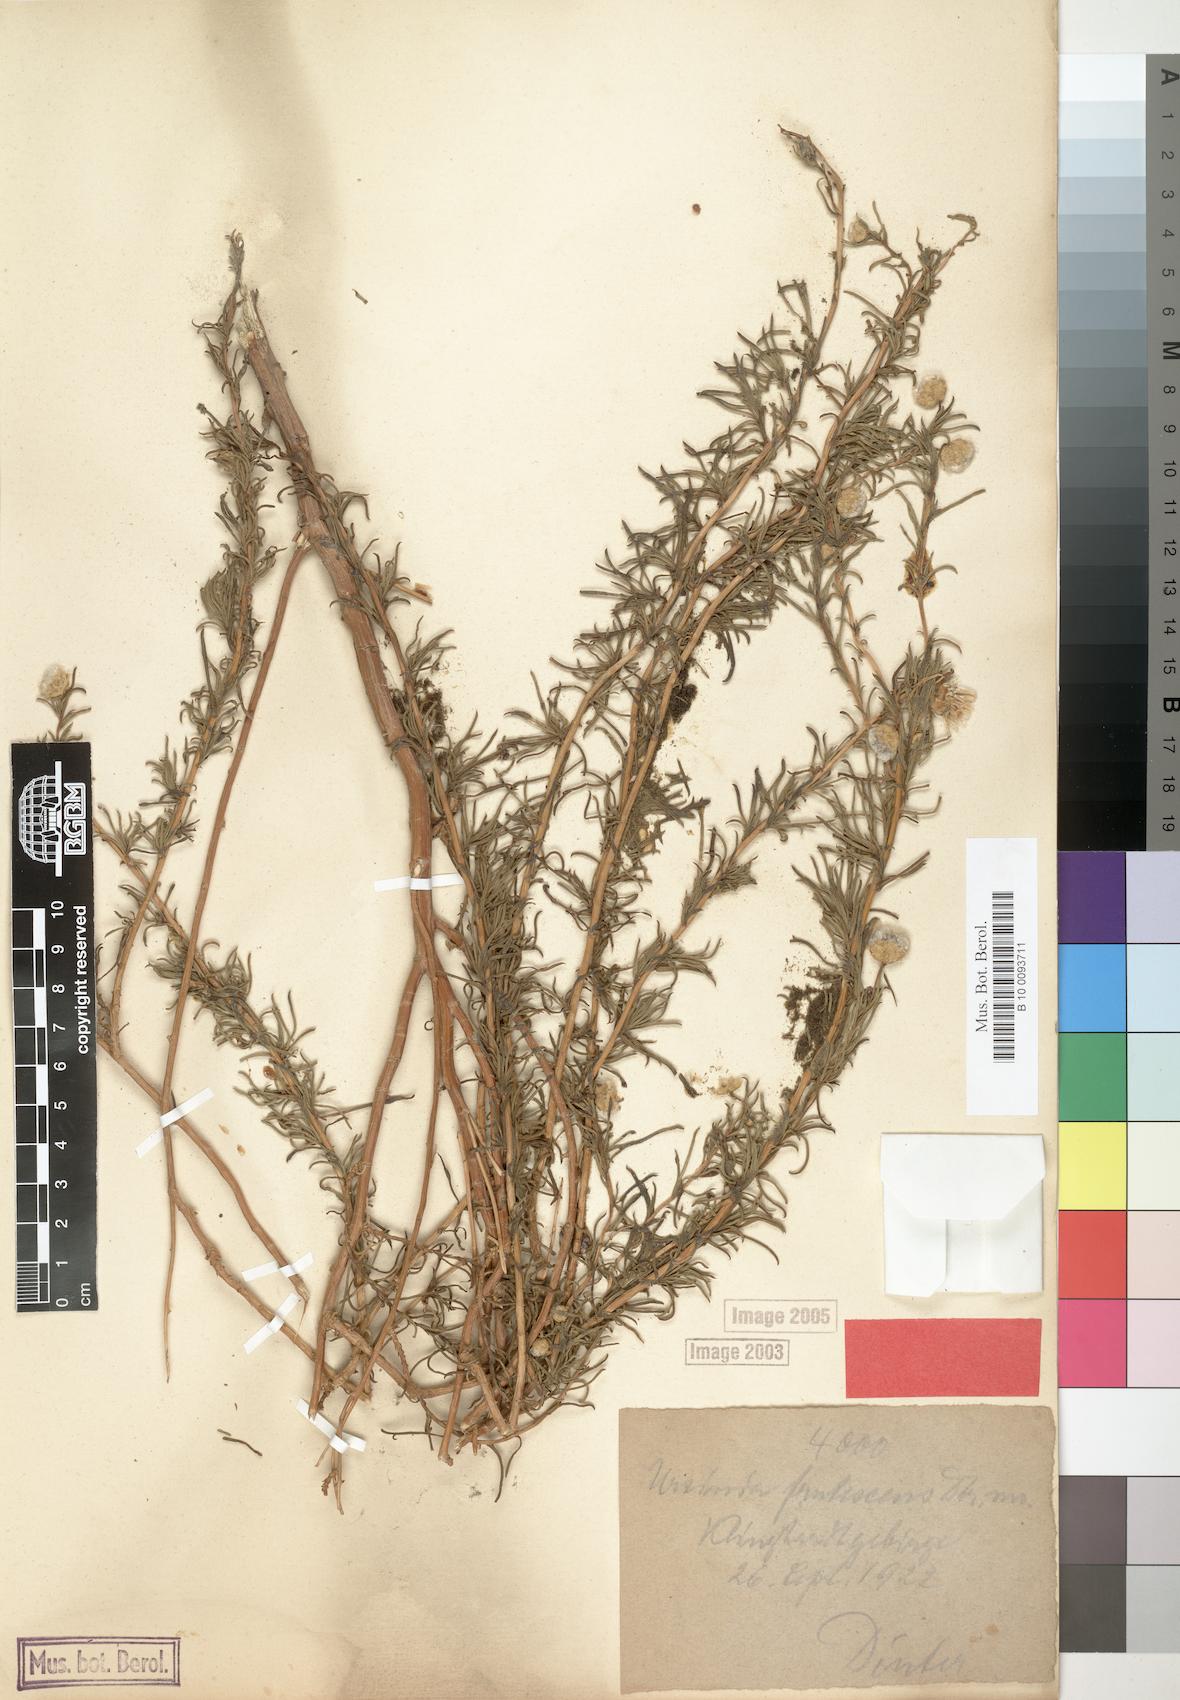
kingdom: Plantae
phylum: Tracheophyta
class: Magnoliopsida
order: Asterales
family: Asteraceae
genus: Ursinia
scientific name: Ursinia frutescens
